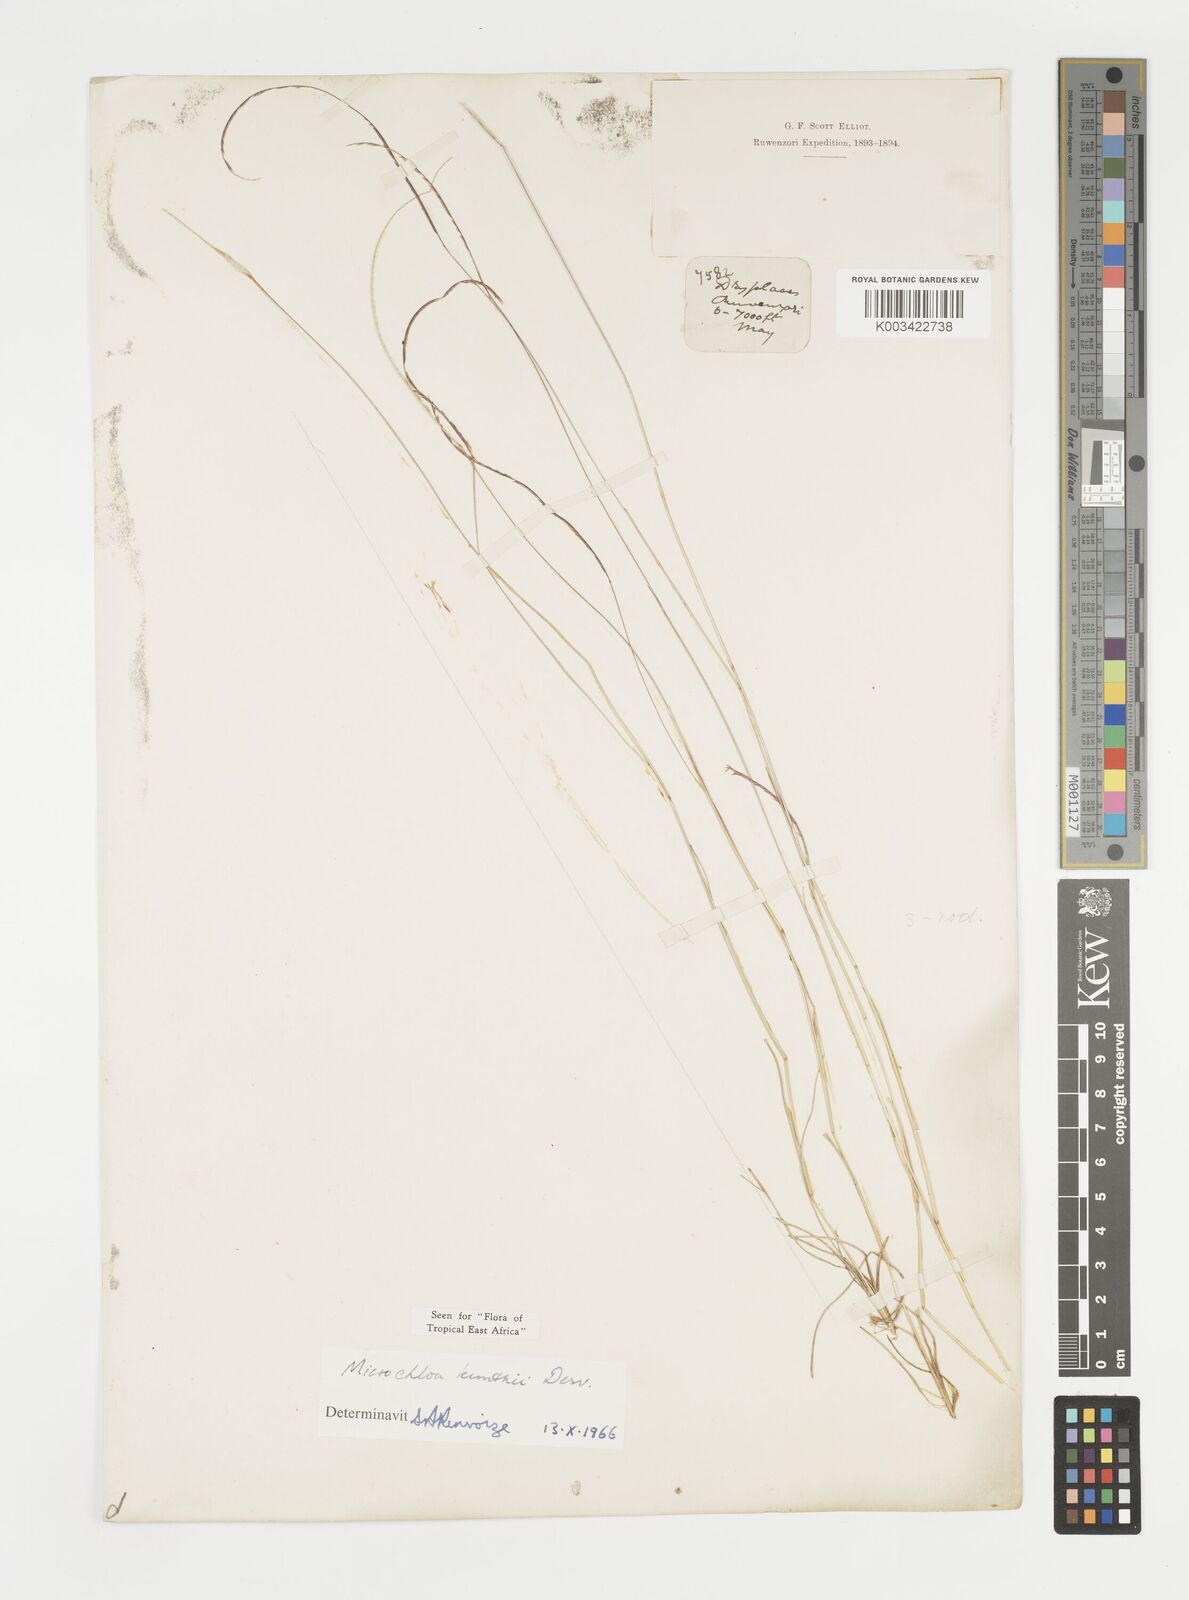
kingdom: Plantae
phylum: Tracheophyta
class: Liliopsida
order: Poales
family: Poaceae
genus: Microchloa
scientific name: Microchloa kunthii
